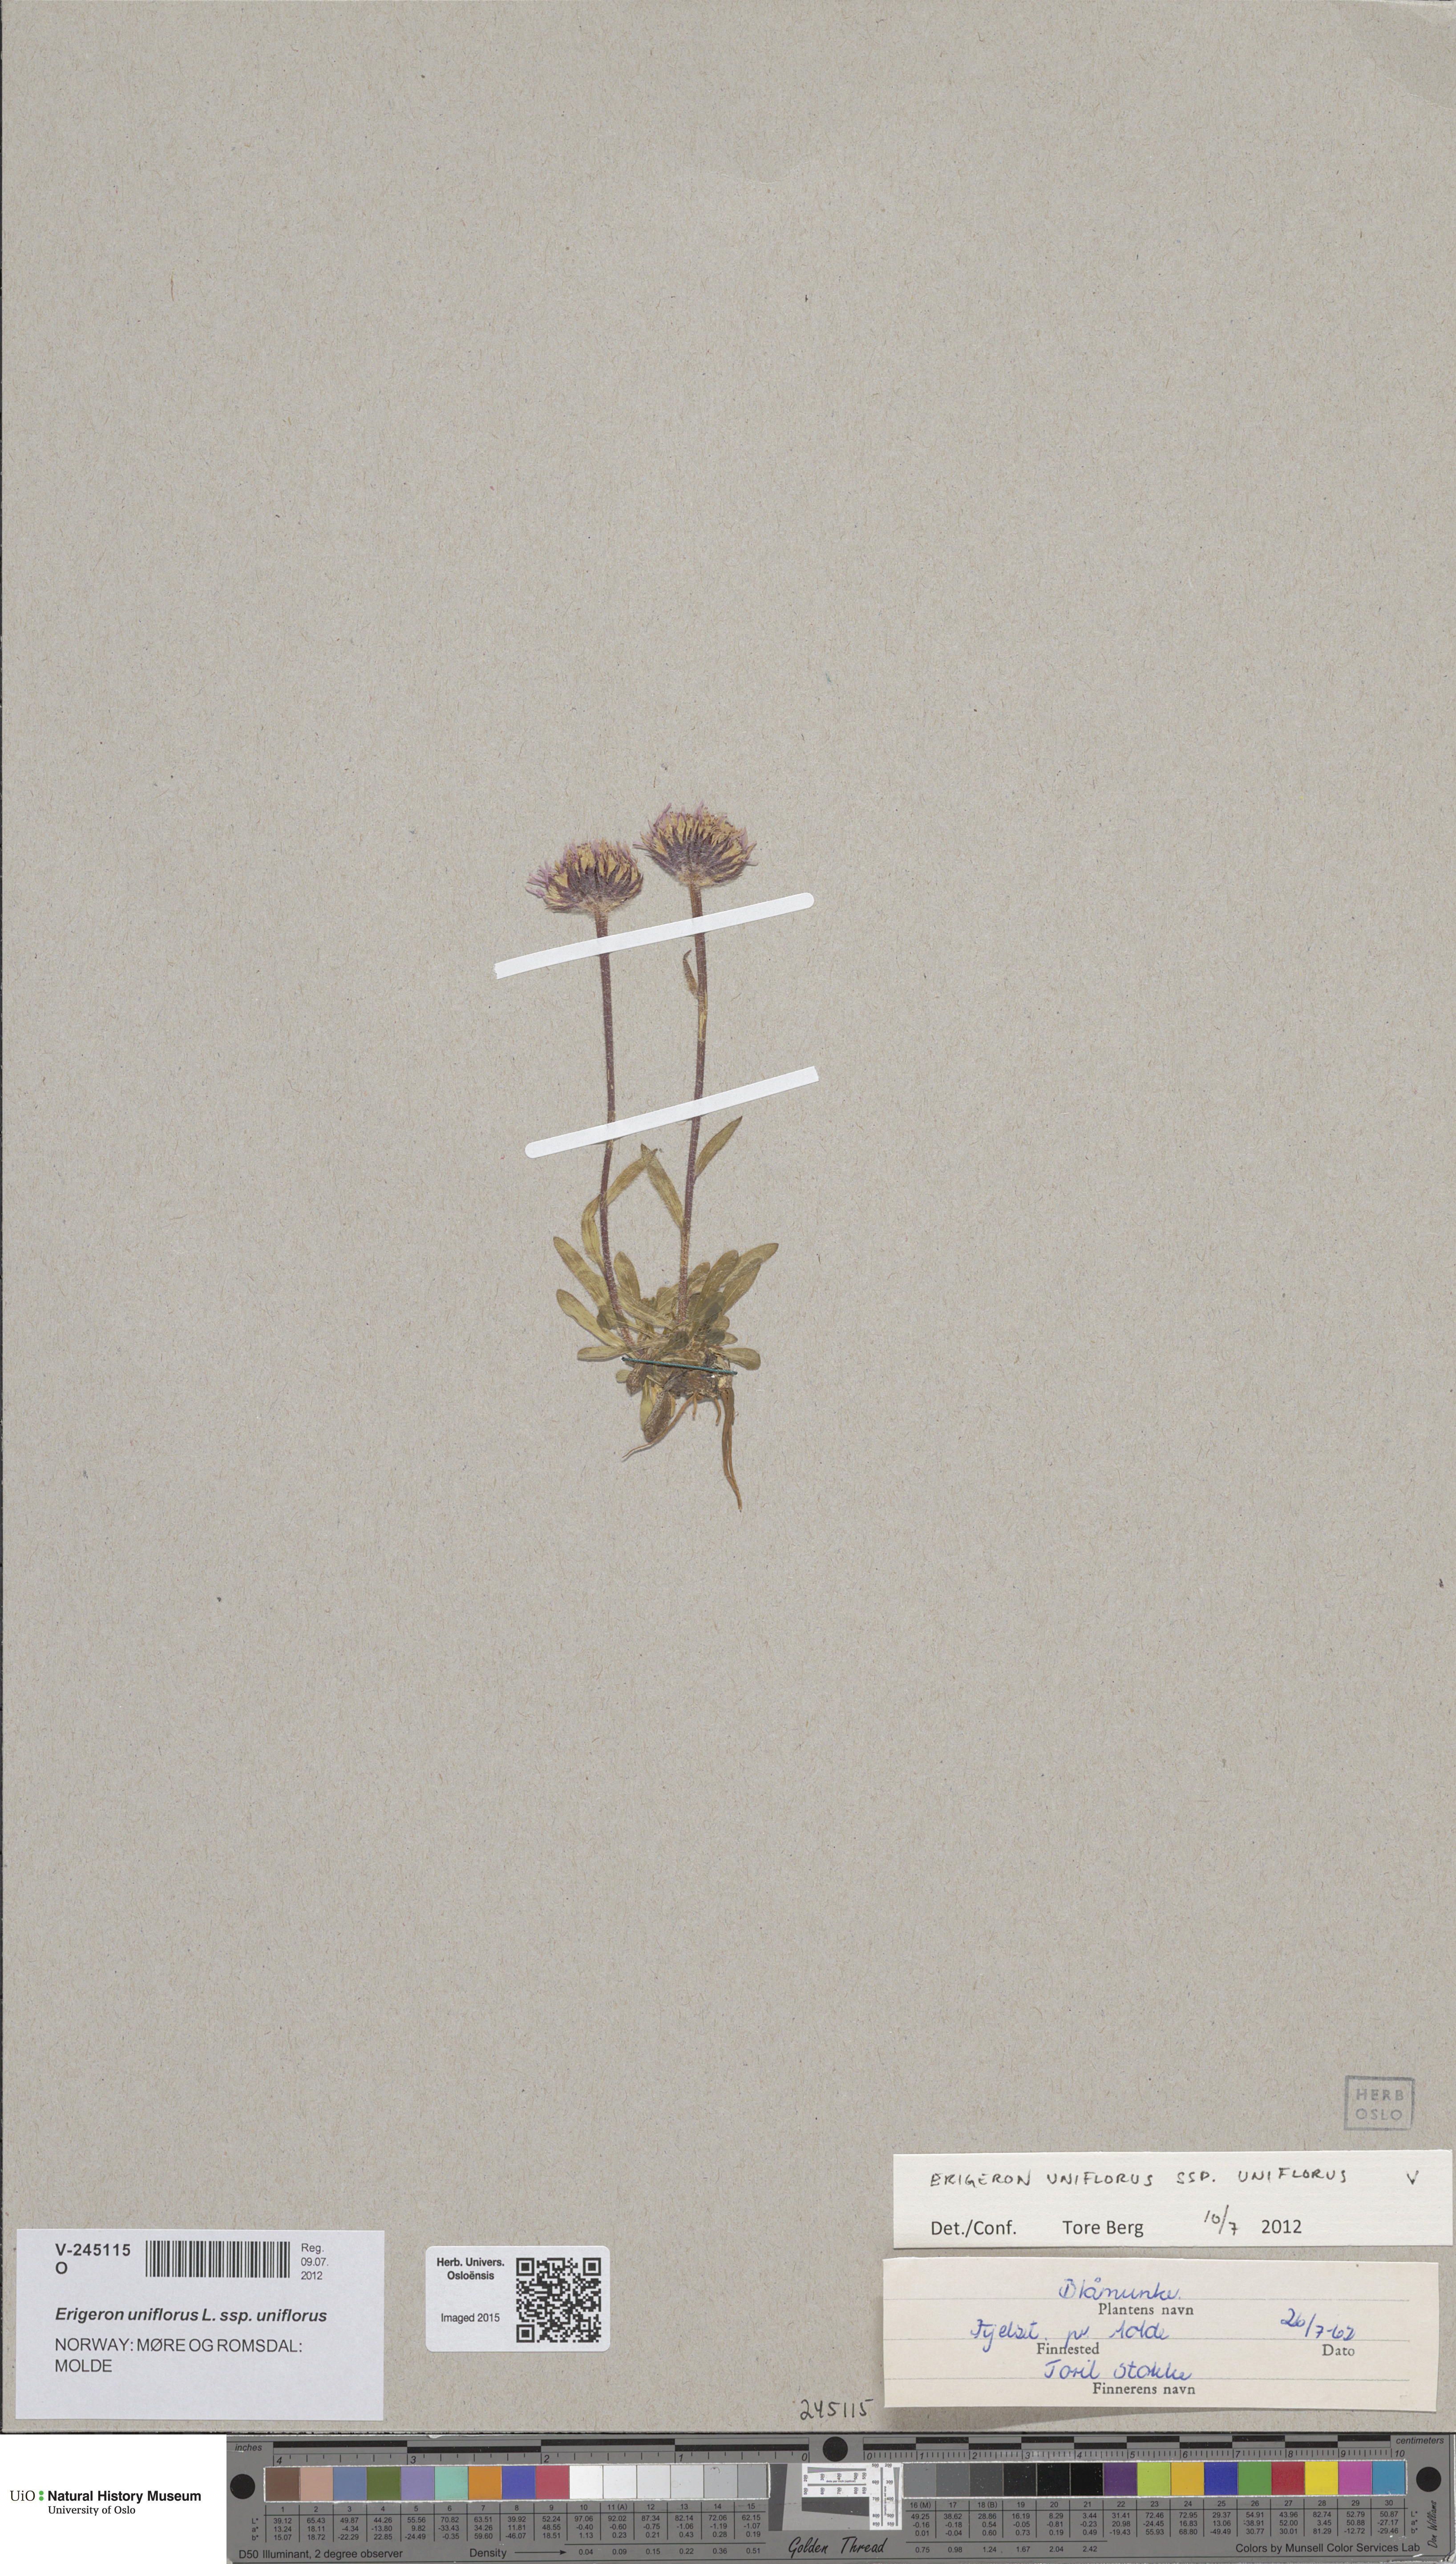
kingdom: Plantae
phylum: Tracheophyta
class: Magnoliopsida
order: Asterales
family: Asteraceae
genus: Erigeron
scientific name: Erigeron uniflorus
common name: Northern daisy
